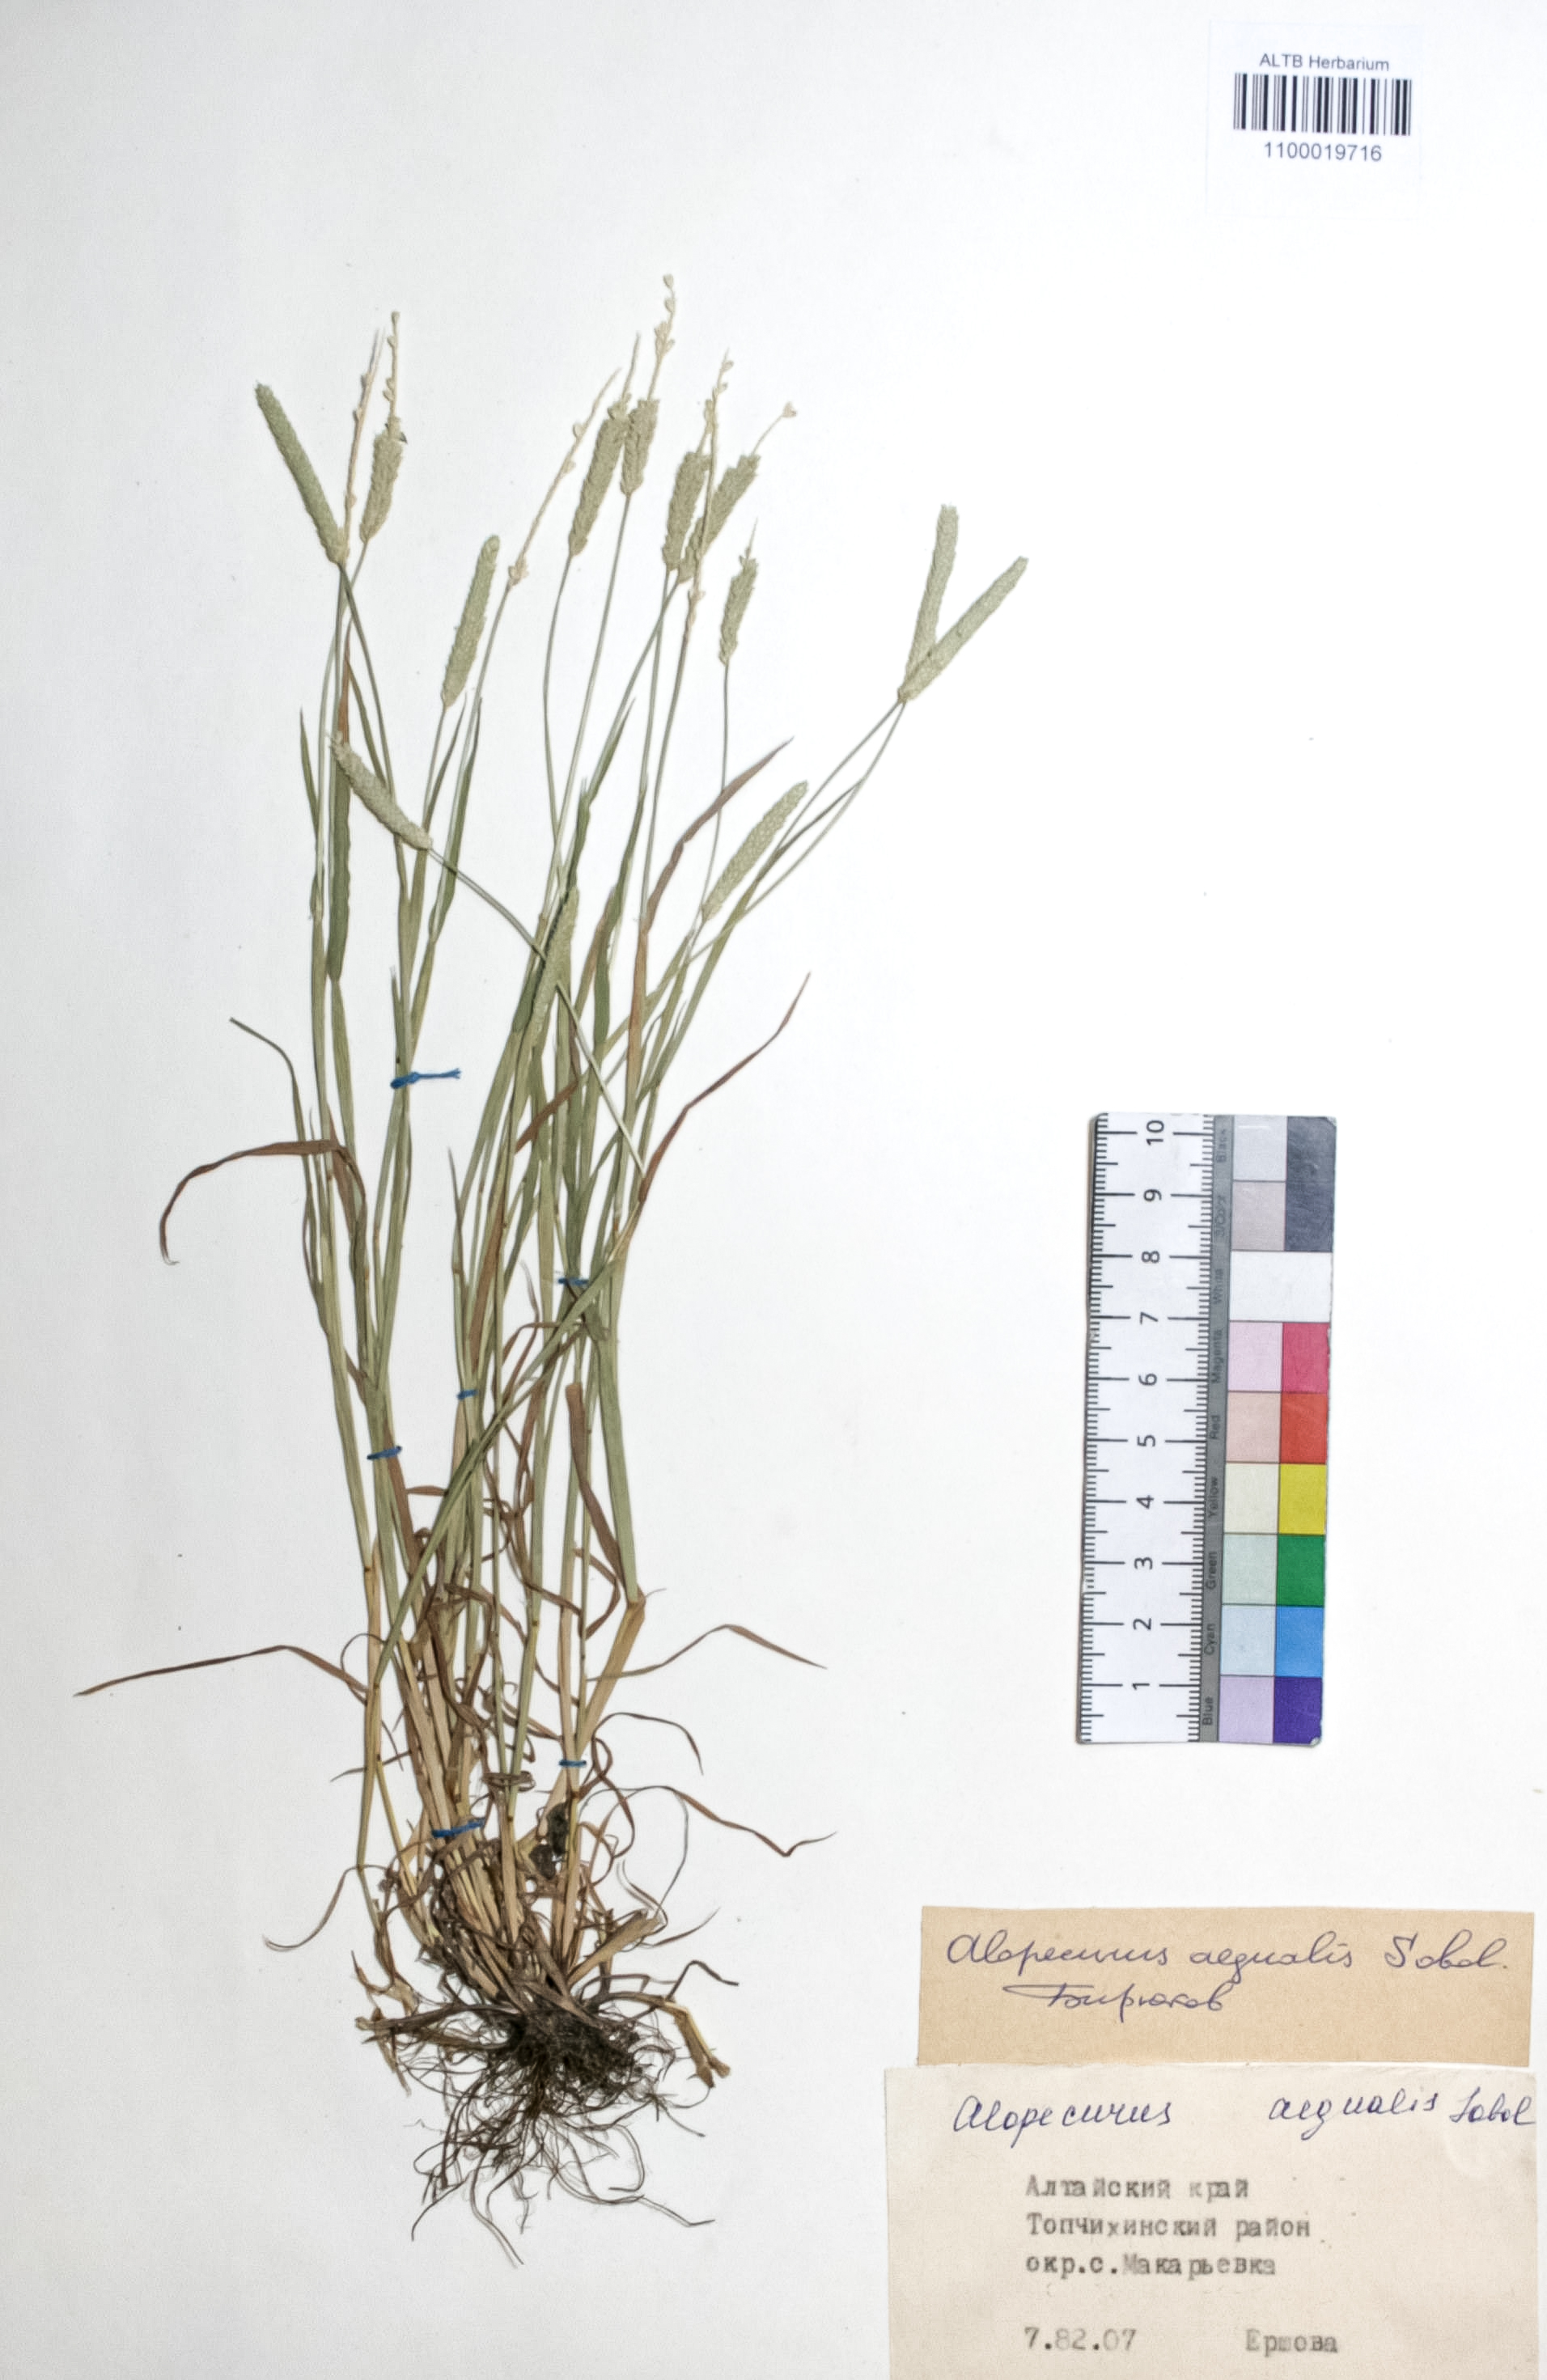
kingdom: Plantae
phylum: Tracheophyta
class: Liliopsida
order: Poales
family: Poaceae
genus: Alopecurus
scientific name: Alopecurus aequalis
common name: Orange foxtail
